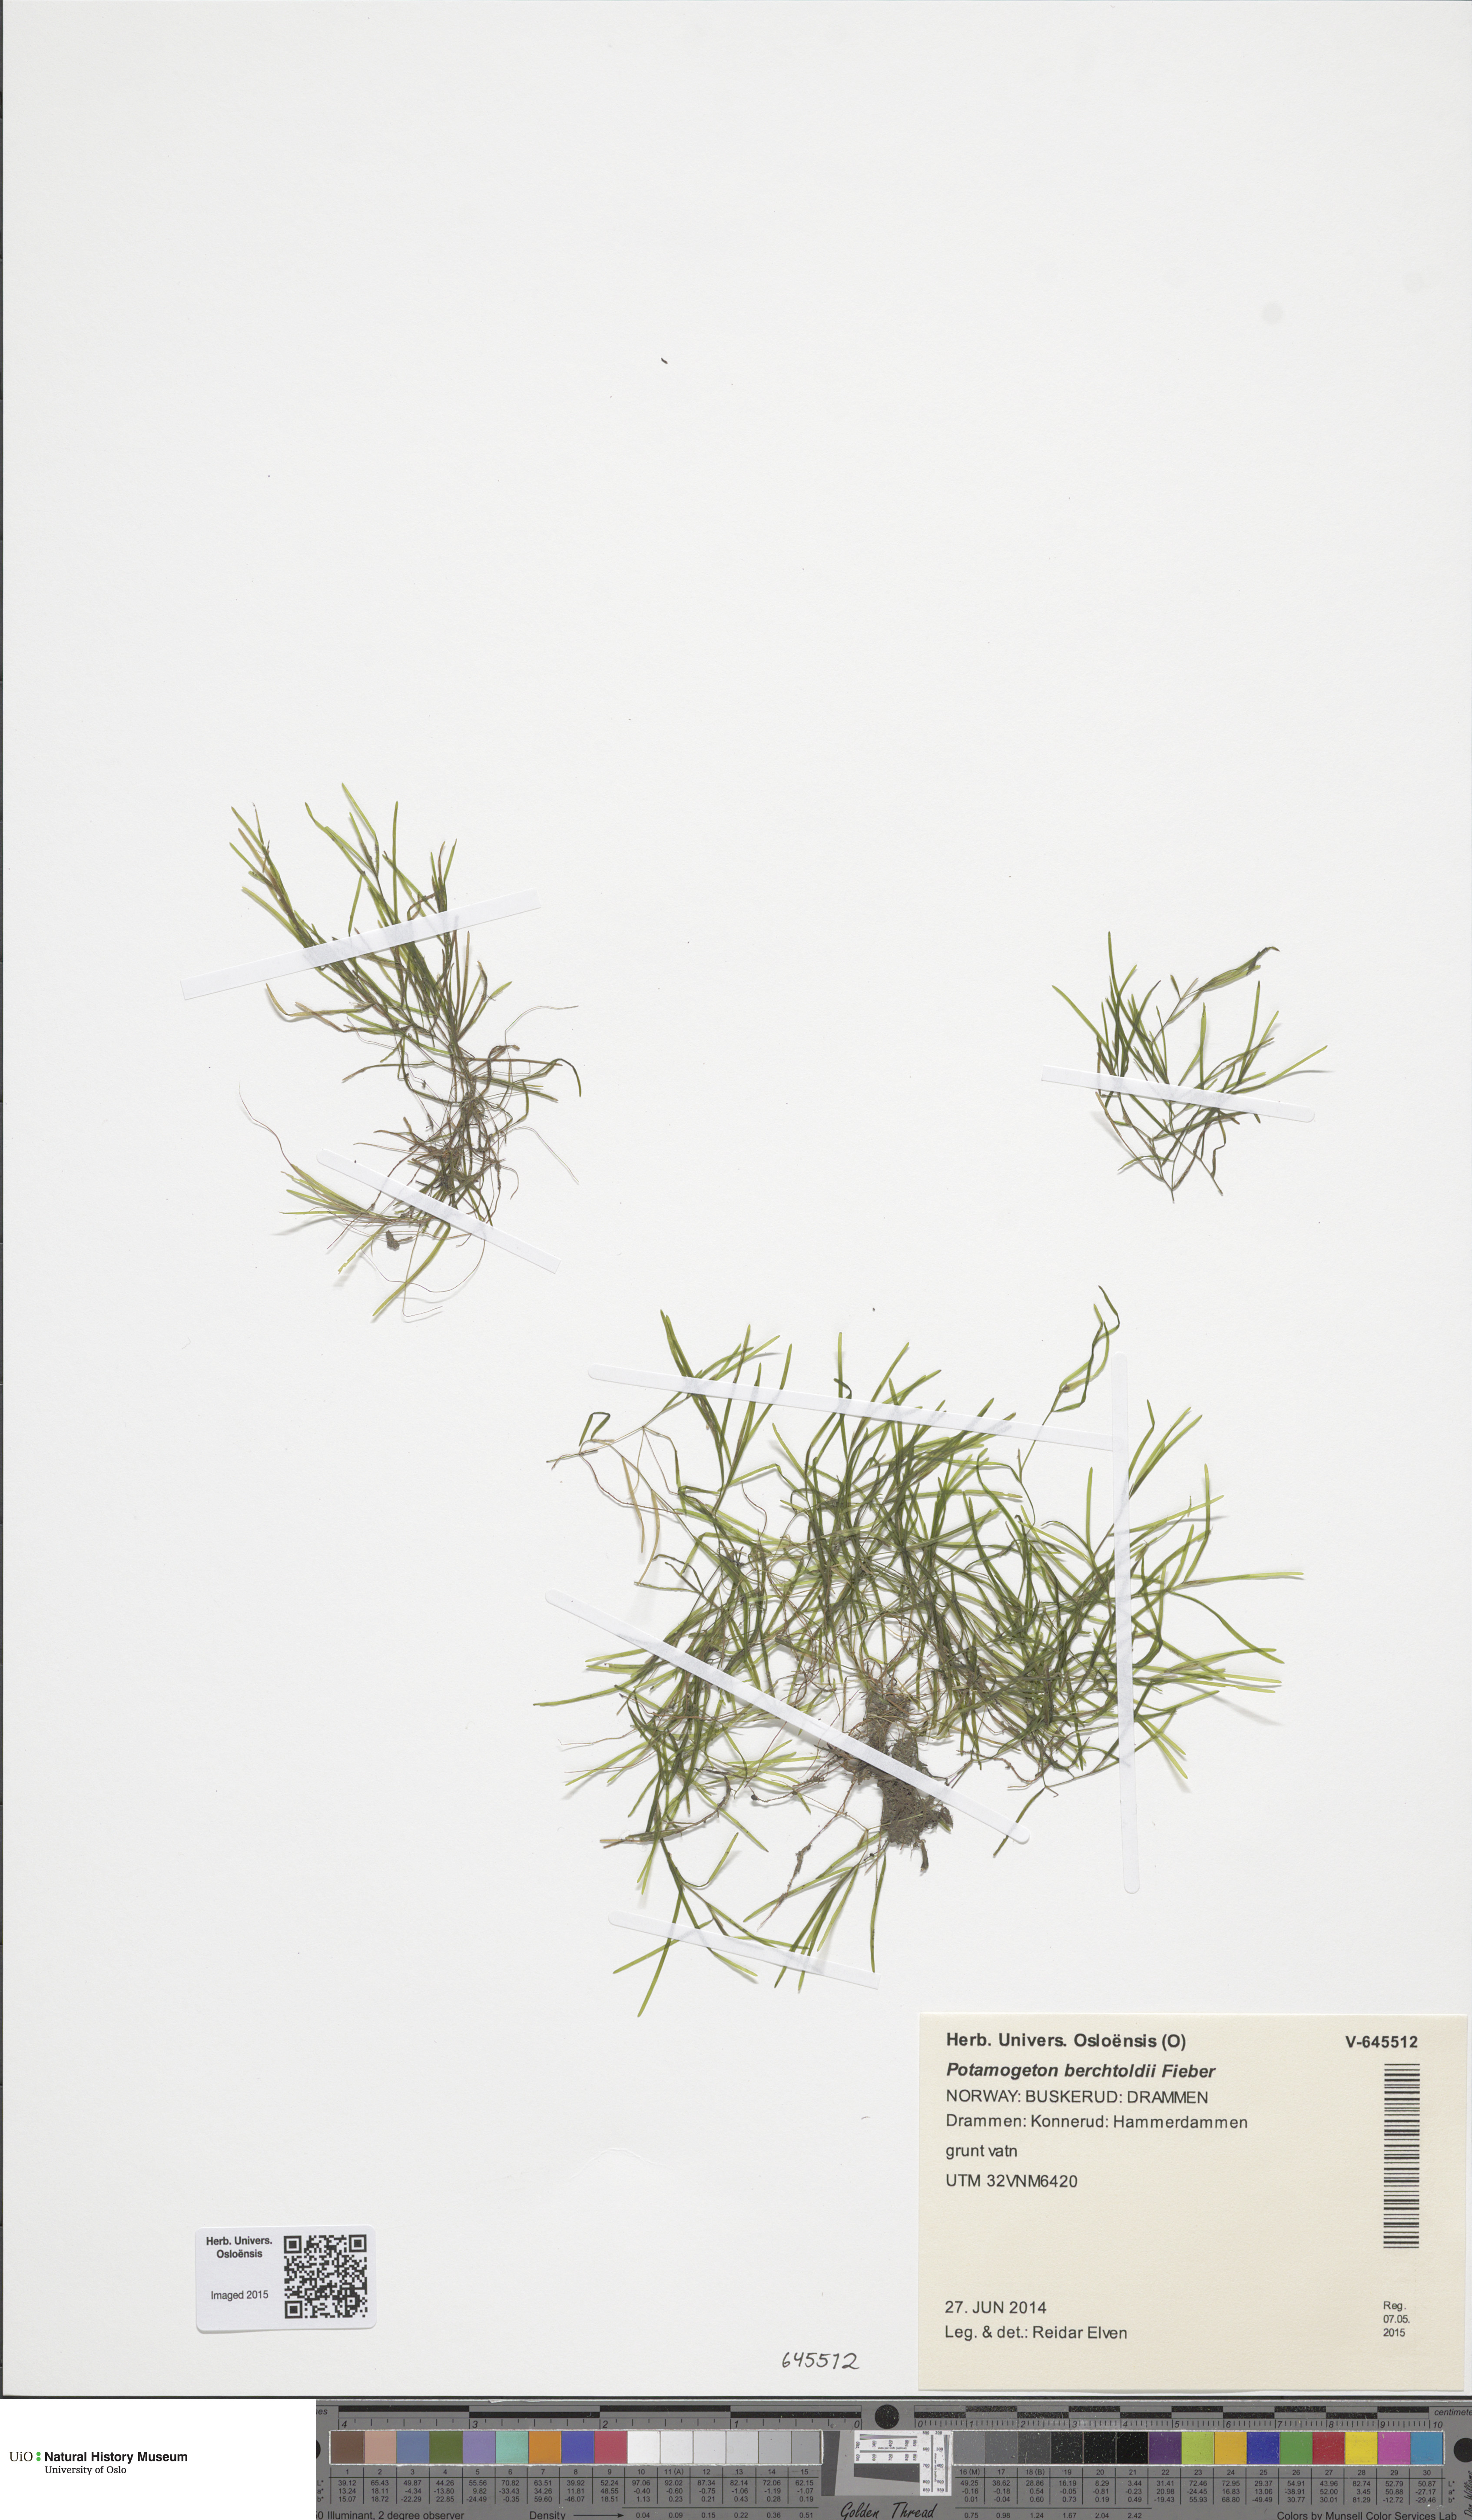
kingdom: Plantae
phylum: Tracheophyta
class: Liliopsida
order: Alismatales
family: Potamogetonaceae
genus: Potamogeton
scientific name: Potamogeton berchtoldii
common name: Small pondweed
